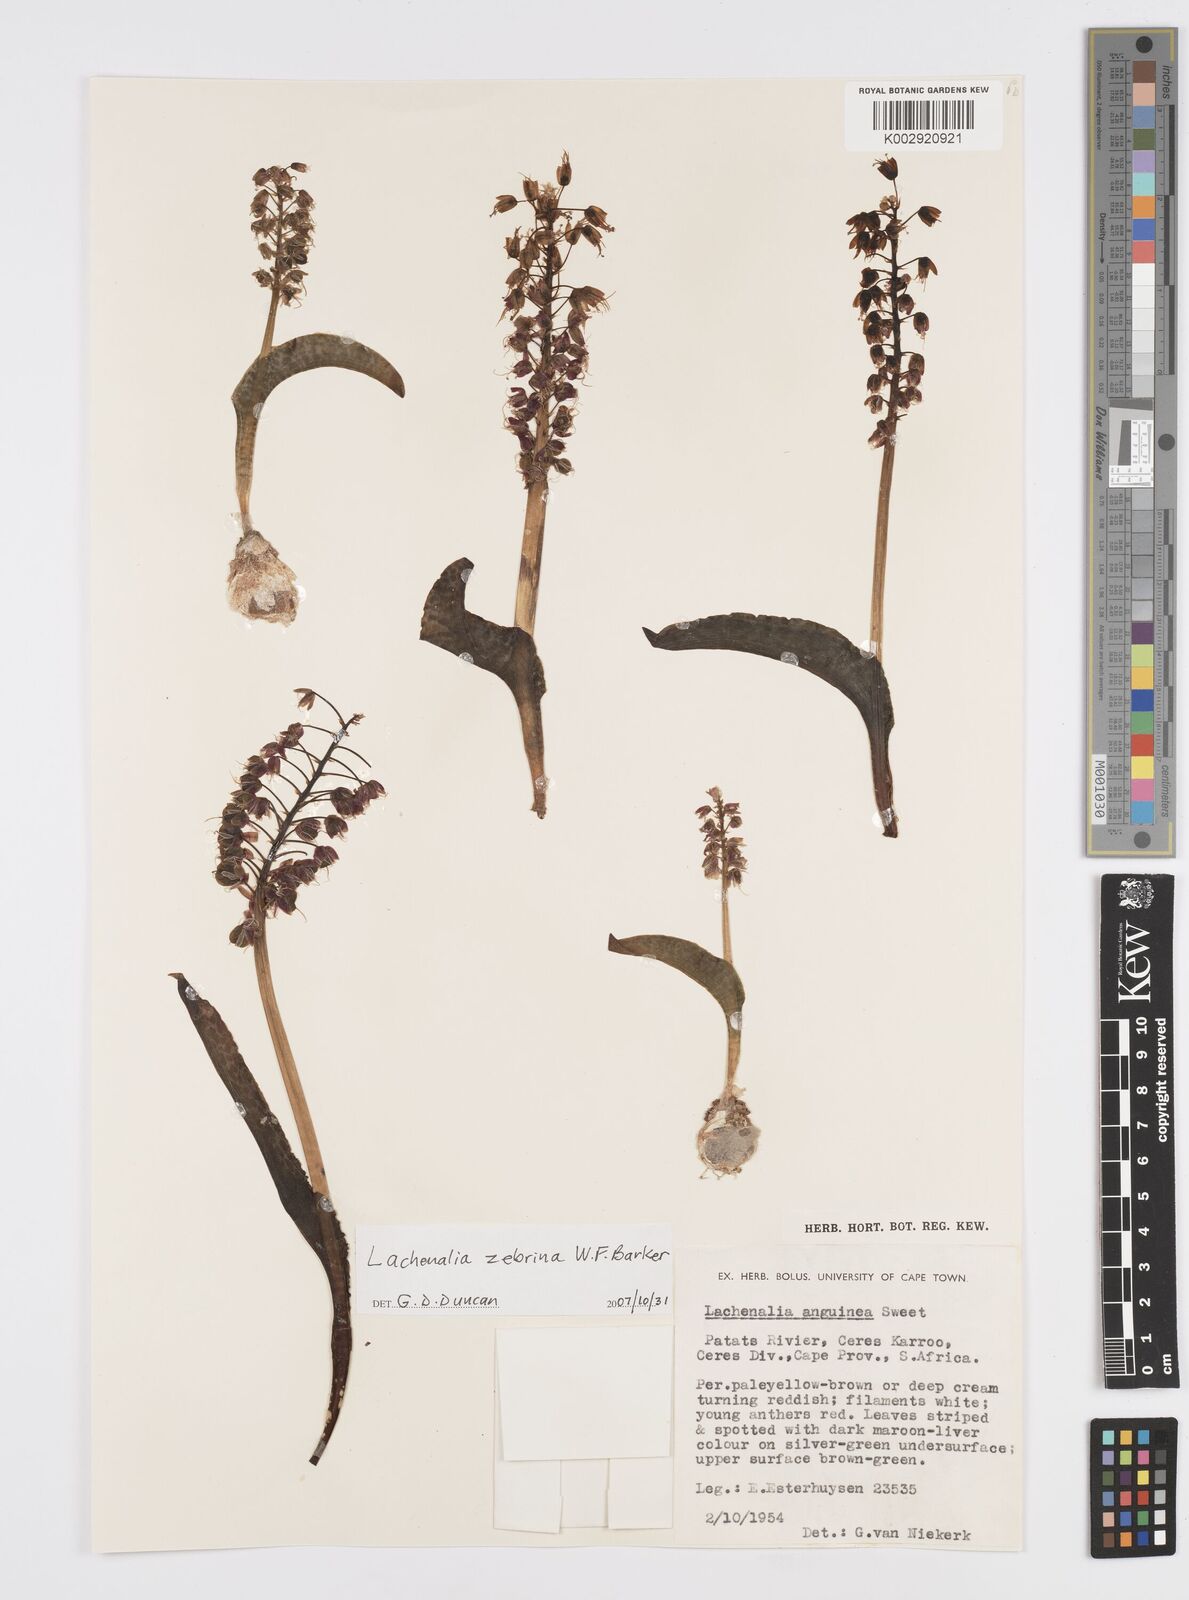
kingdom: Plantae
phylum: Tracheophyta
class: Liliopsida
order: Asparagales
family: Asparagaceae
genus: Lachenalia
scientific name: Lachenalia zebrina
